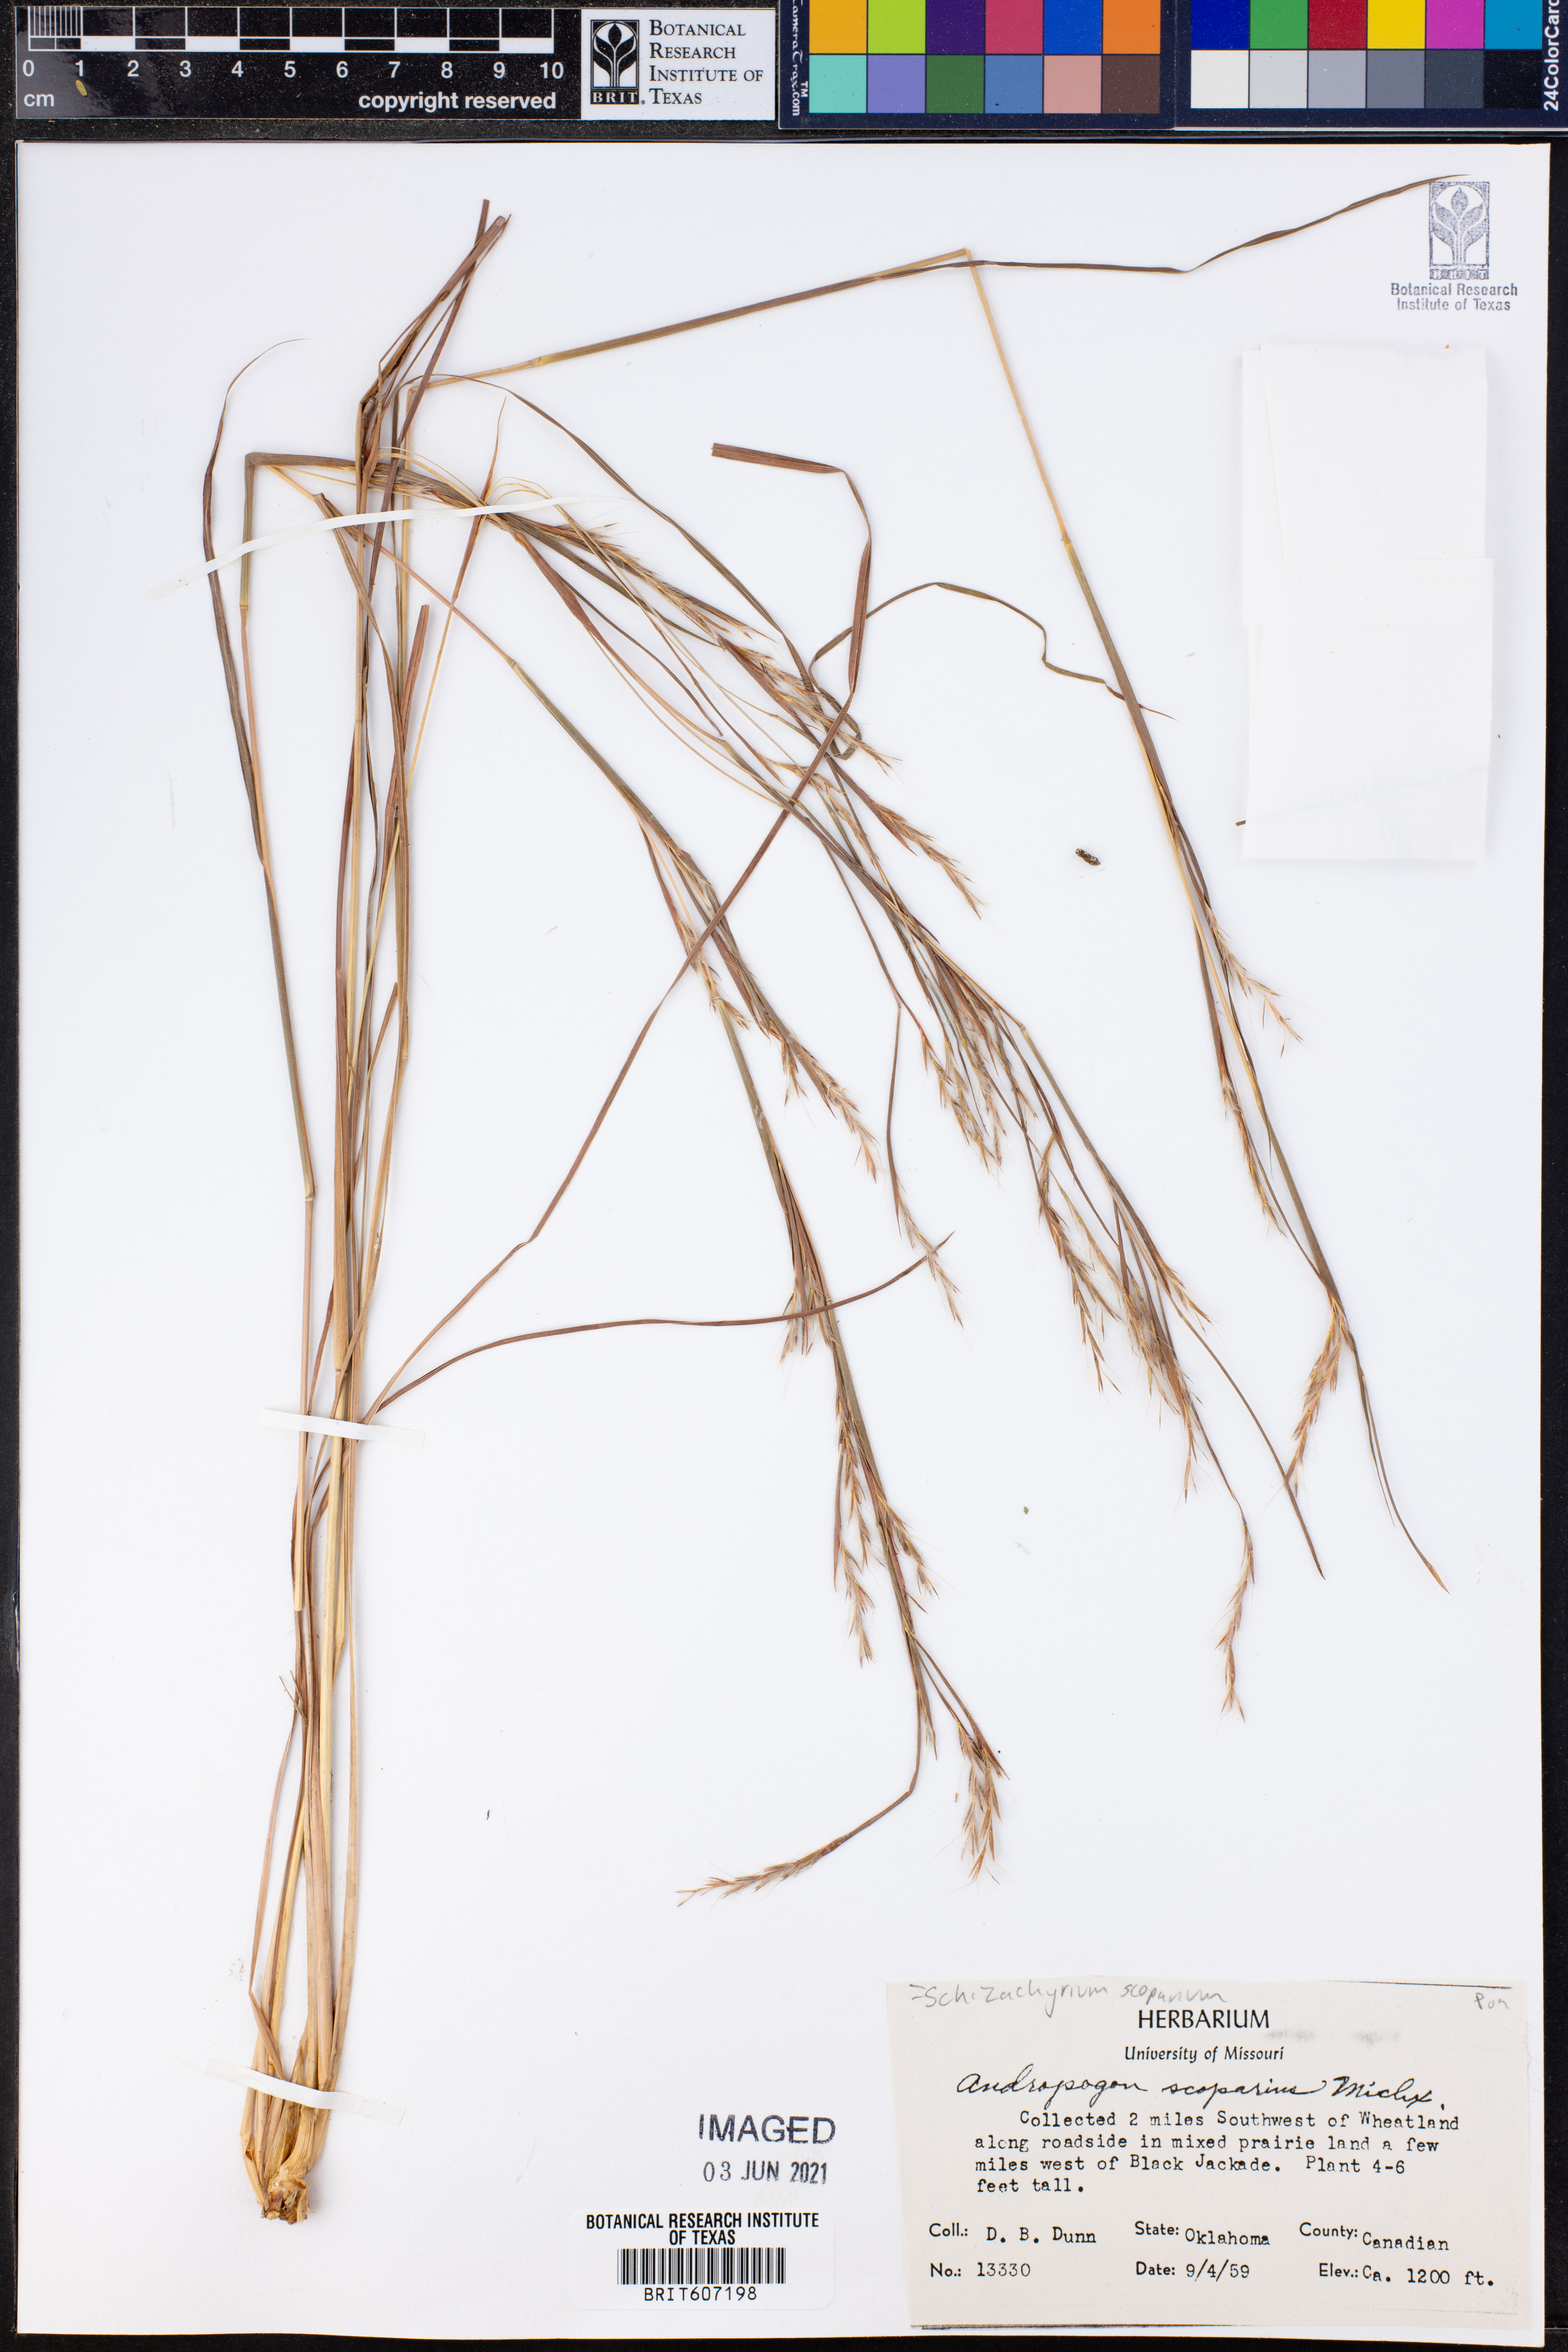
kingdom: Plantae
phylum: Tracheophyta
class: Liliopsida
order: Poales
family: Poaceae
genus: Schizachyrium
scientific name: Schizachyrium scoparium
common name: Little bluestem
